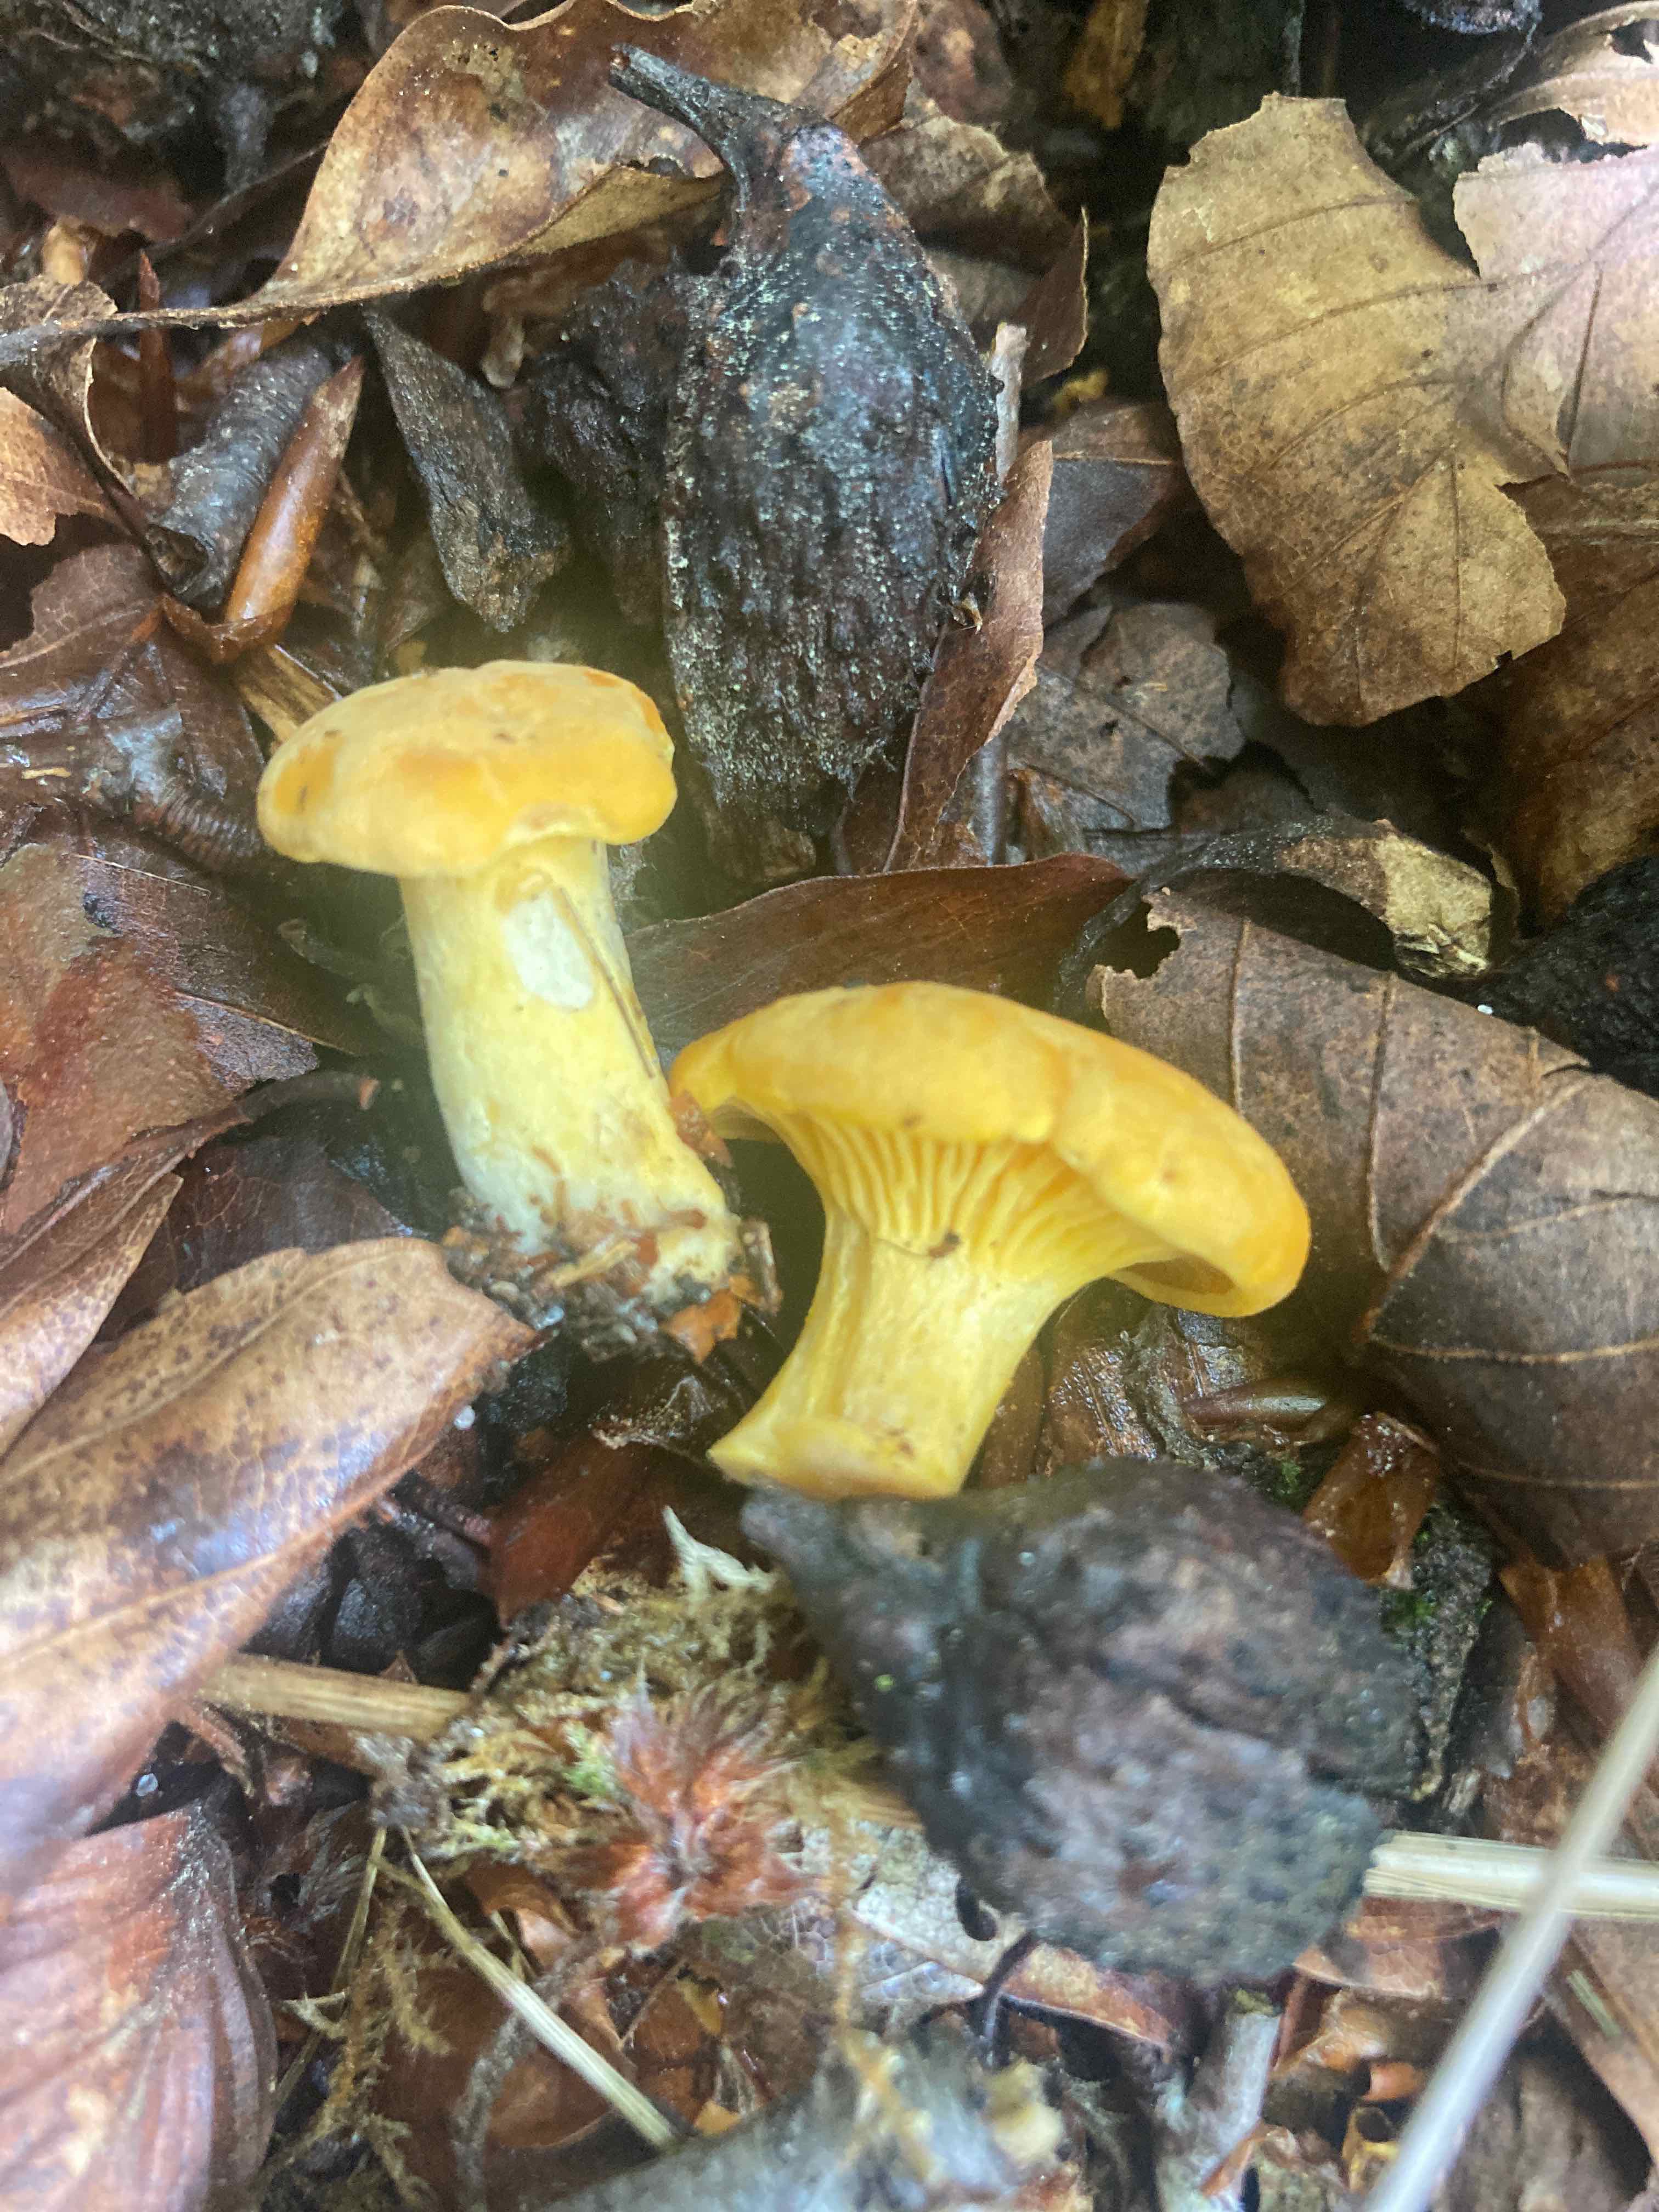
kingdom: Fungi
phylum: Basidiomycota
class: Agaricomycetes
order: Cantharellales
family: Hydnaceae
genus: Cantharellus
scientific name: Cantharellus cibarius
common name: almindelig kantarel
